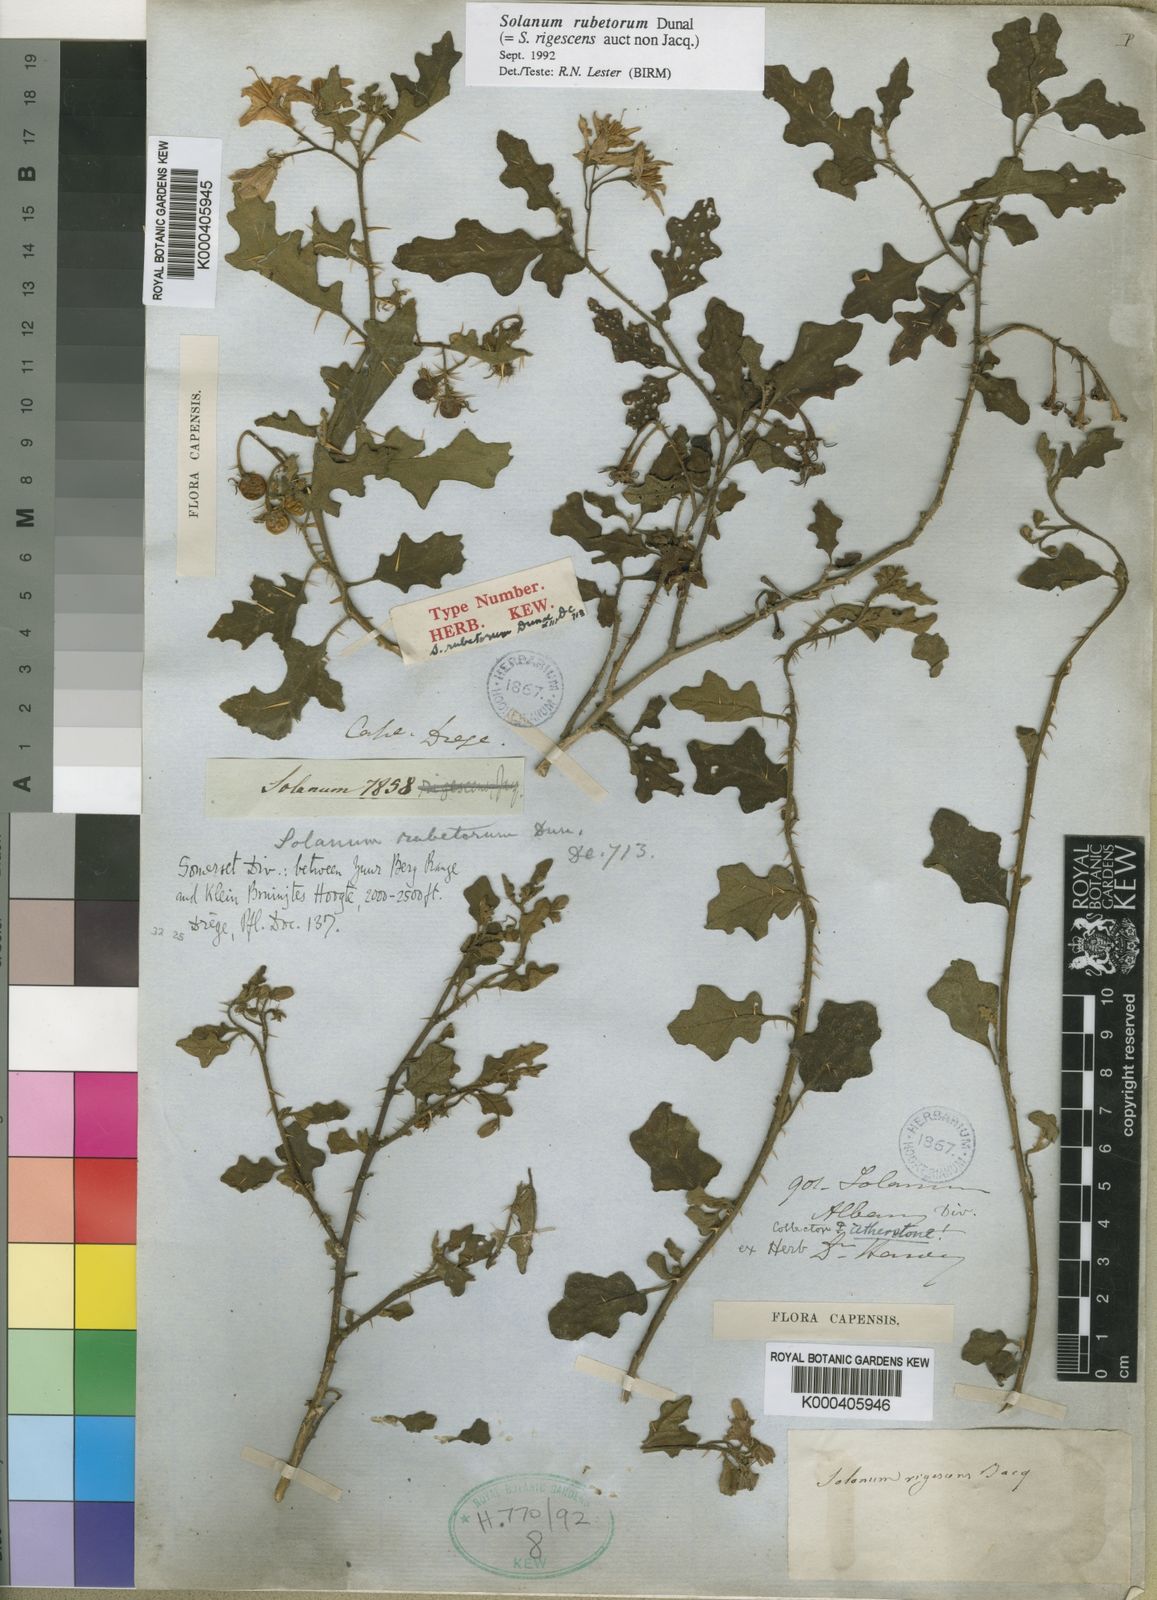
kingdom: Plantae
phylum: Tracheophyta
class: Magnoliopsida
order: Solanales
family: Solanaceae
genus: Solanum
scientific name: Solanum rubetorum
